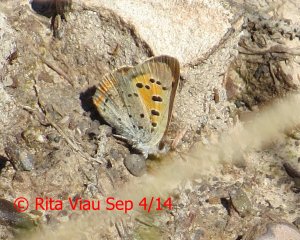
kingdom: Animalia
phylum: Arthropoda
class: Insecta
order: Lepidoptera
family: Lycaenidae
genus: Lycaena
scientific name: Lycaena phlaeas
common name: American Copper
